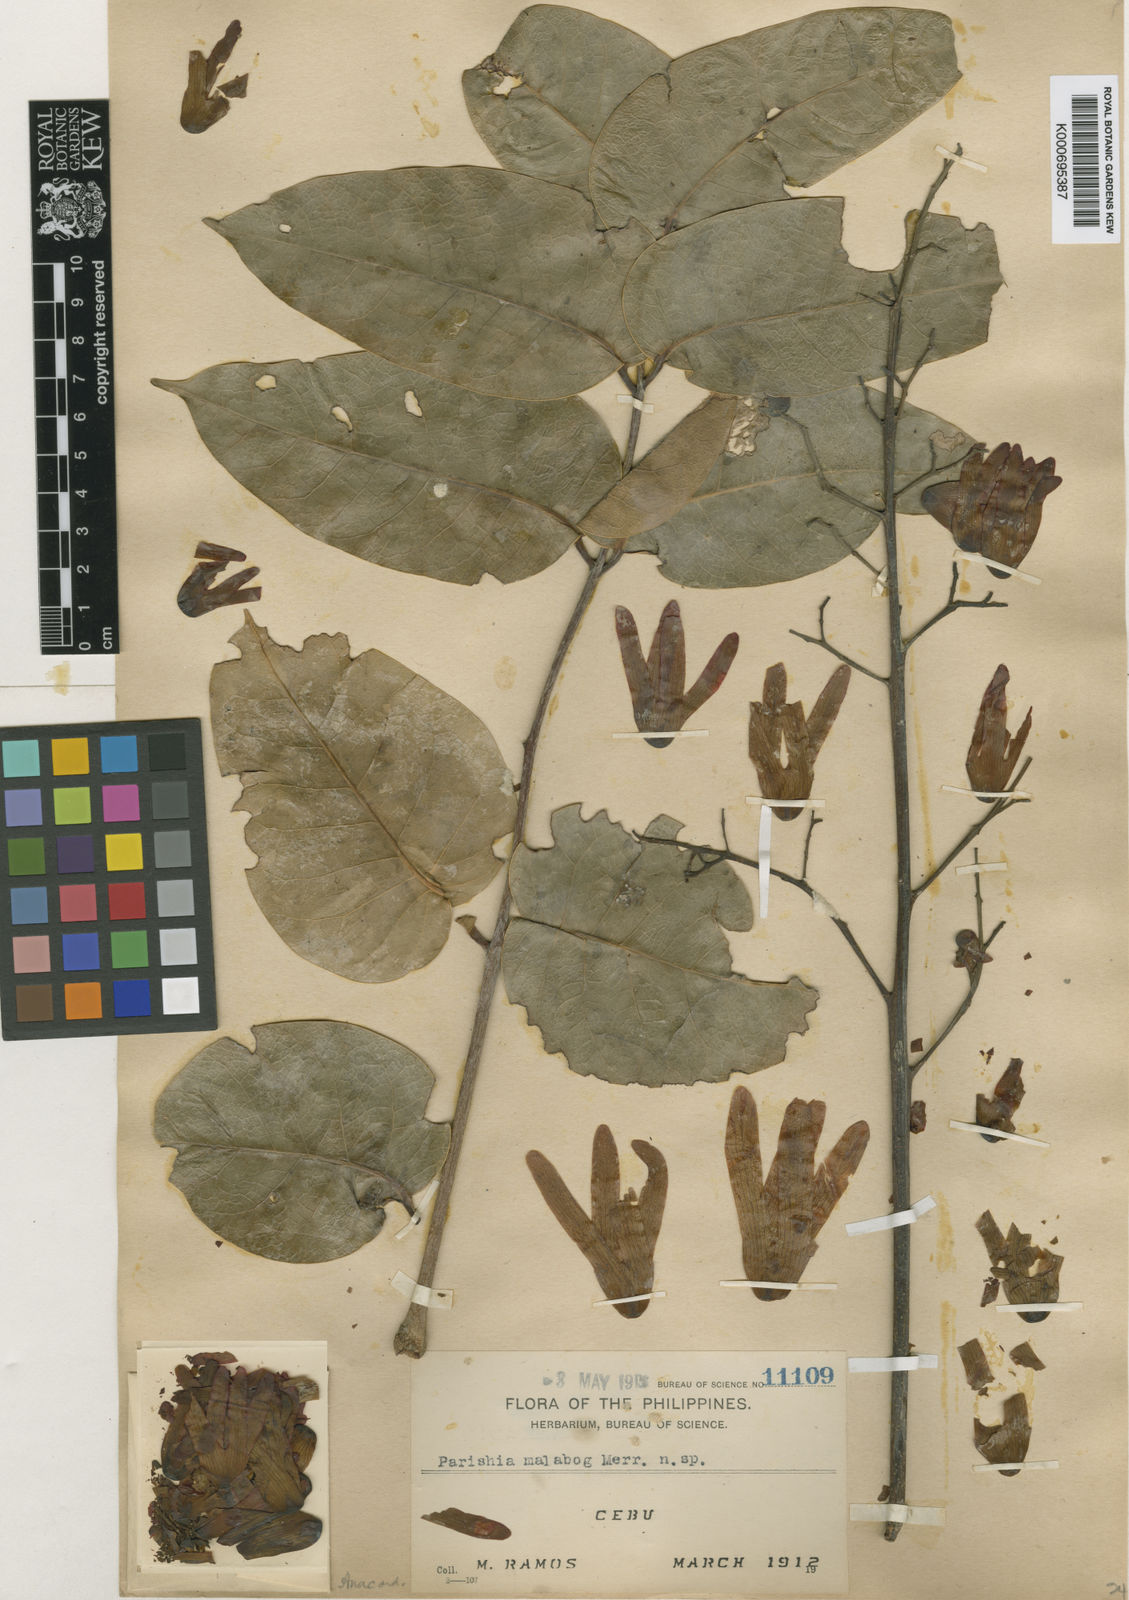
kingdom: Plantae
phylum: Tracheophyta
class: Magnoliopsida
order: Sapindales
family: Anacardiaceae
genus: Parishia
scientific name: Parishia malabog
